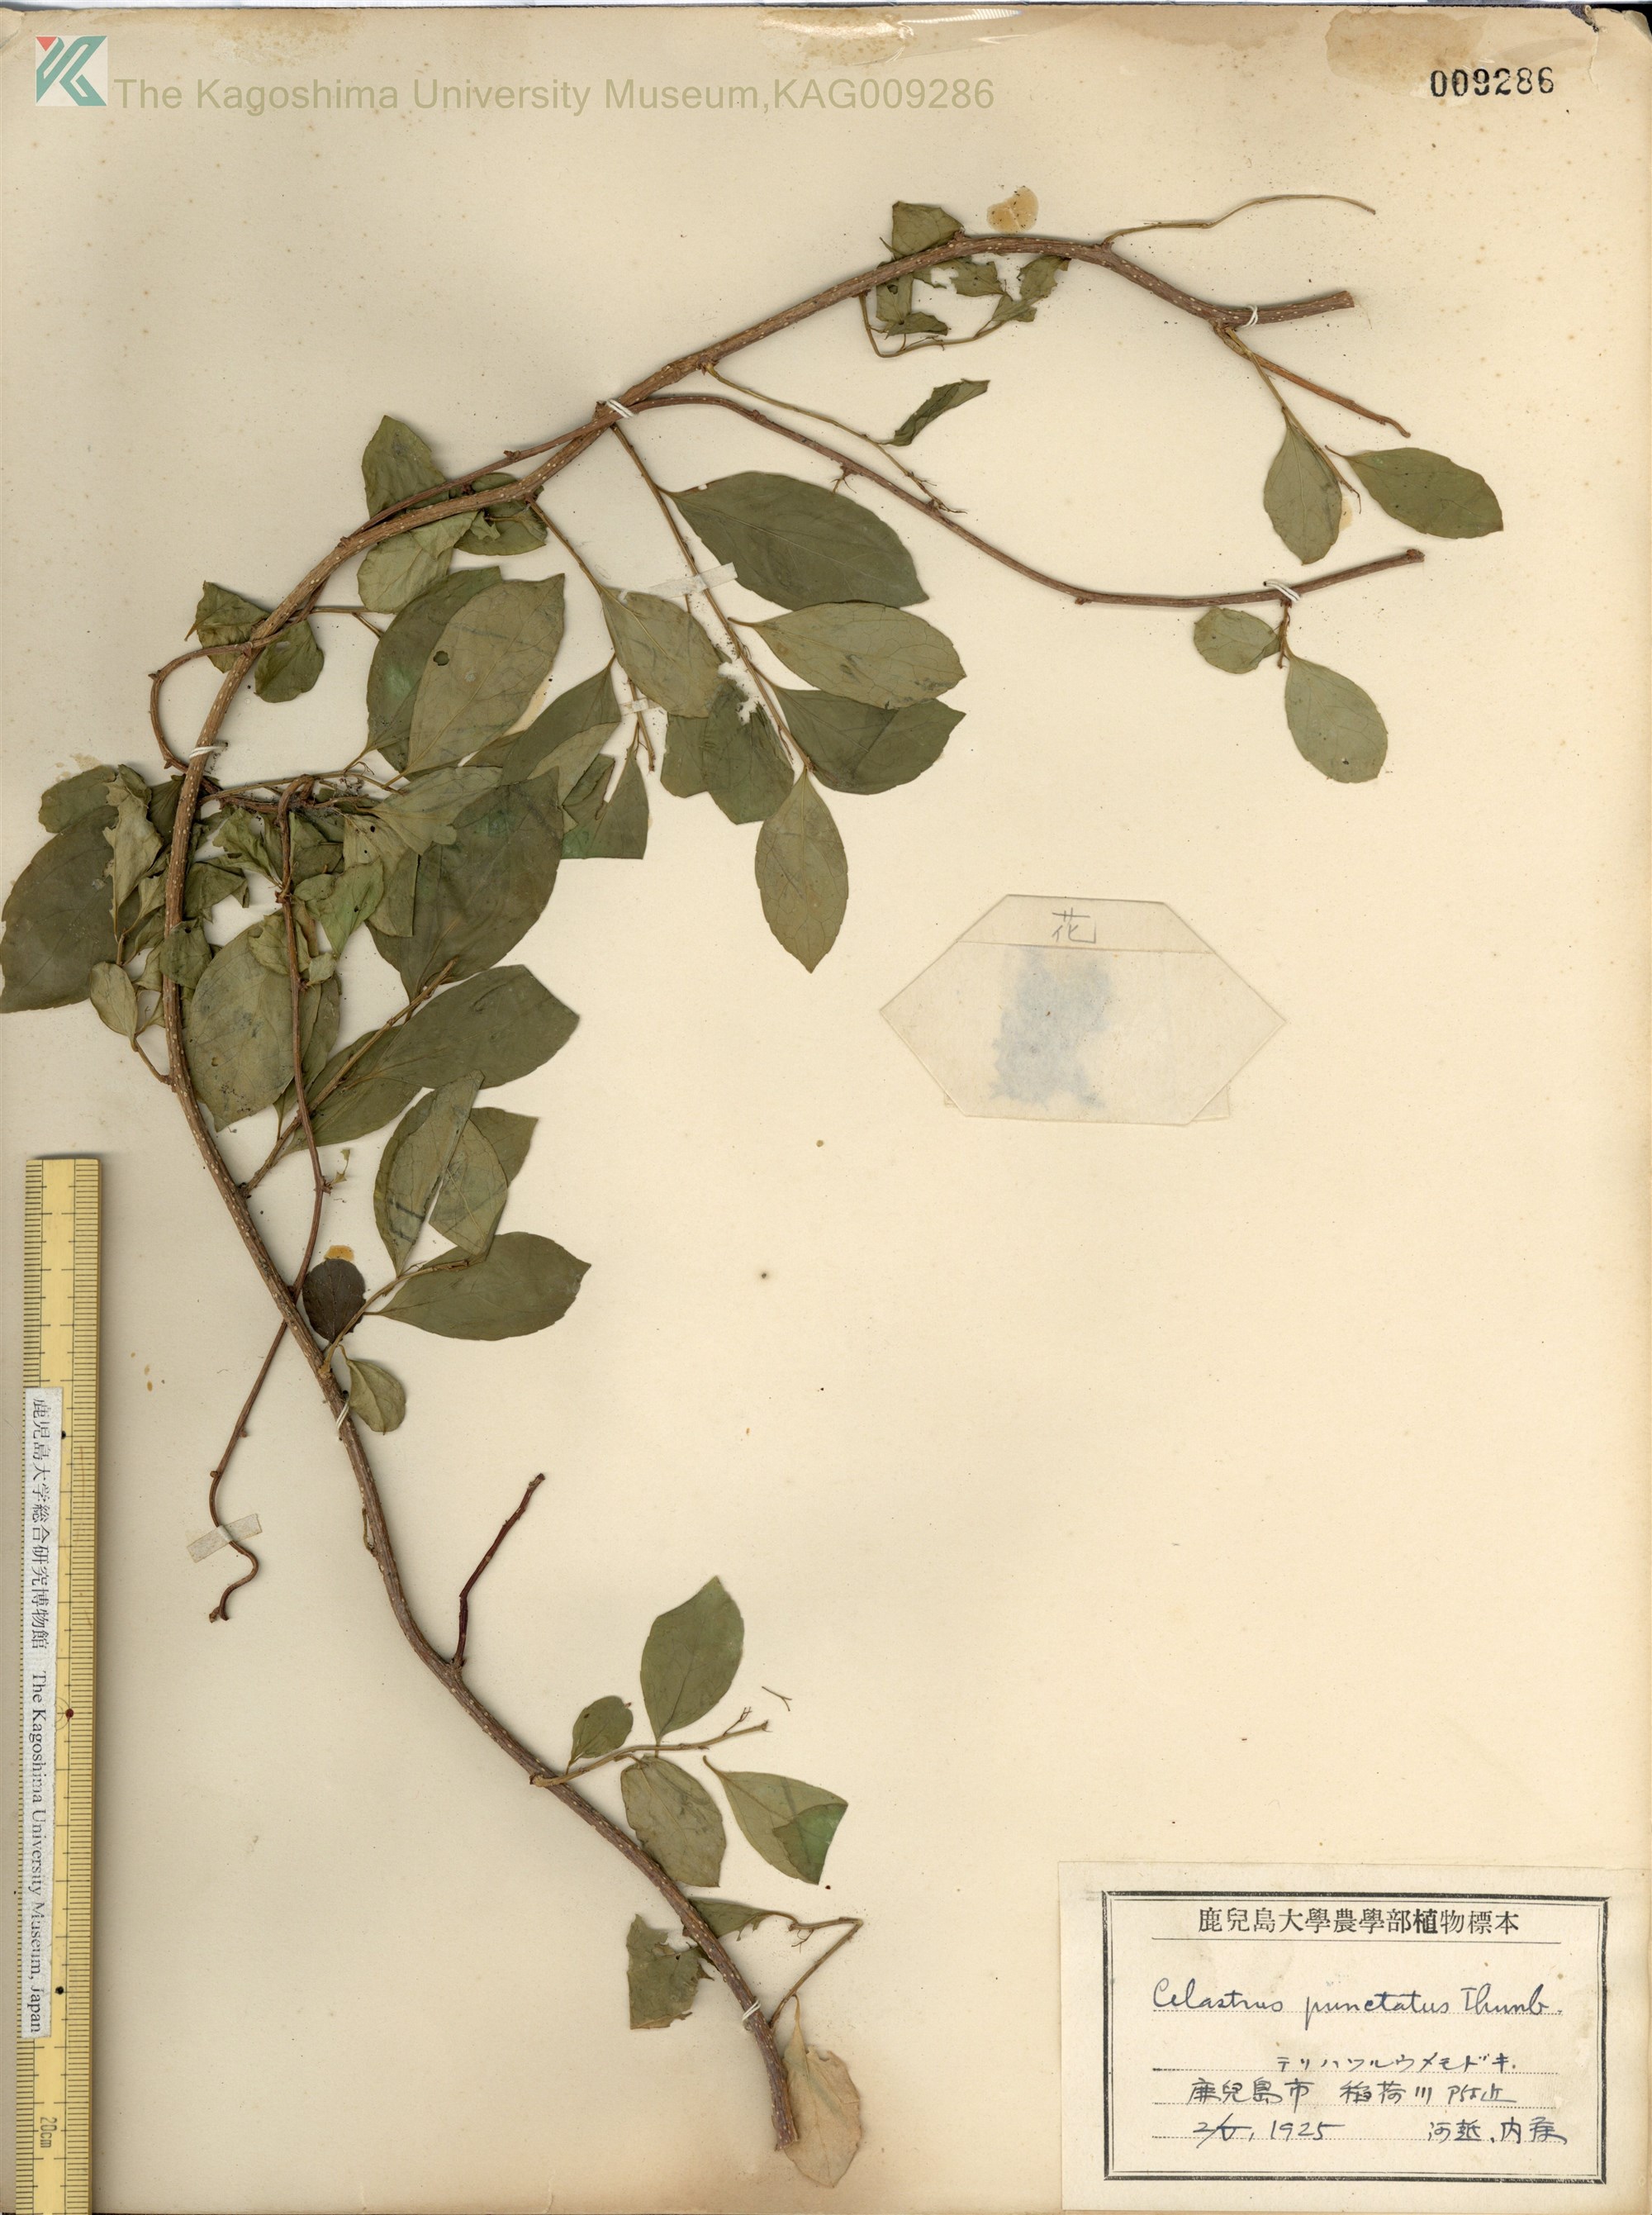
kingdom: Plantae
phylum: Tracheophyta
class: Magnoliopsida
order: Celastrales
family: Celastraceae
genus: Celastrus
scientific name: Celastrus punctatus
